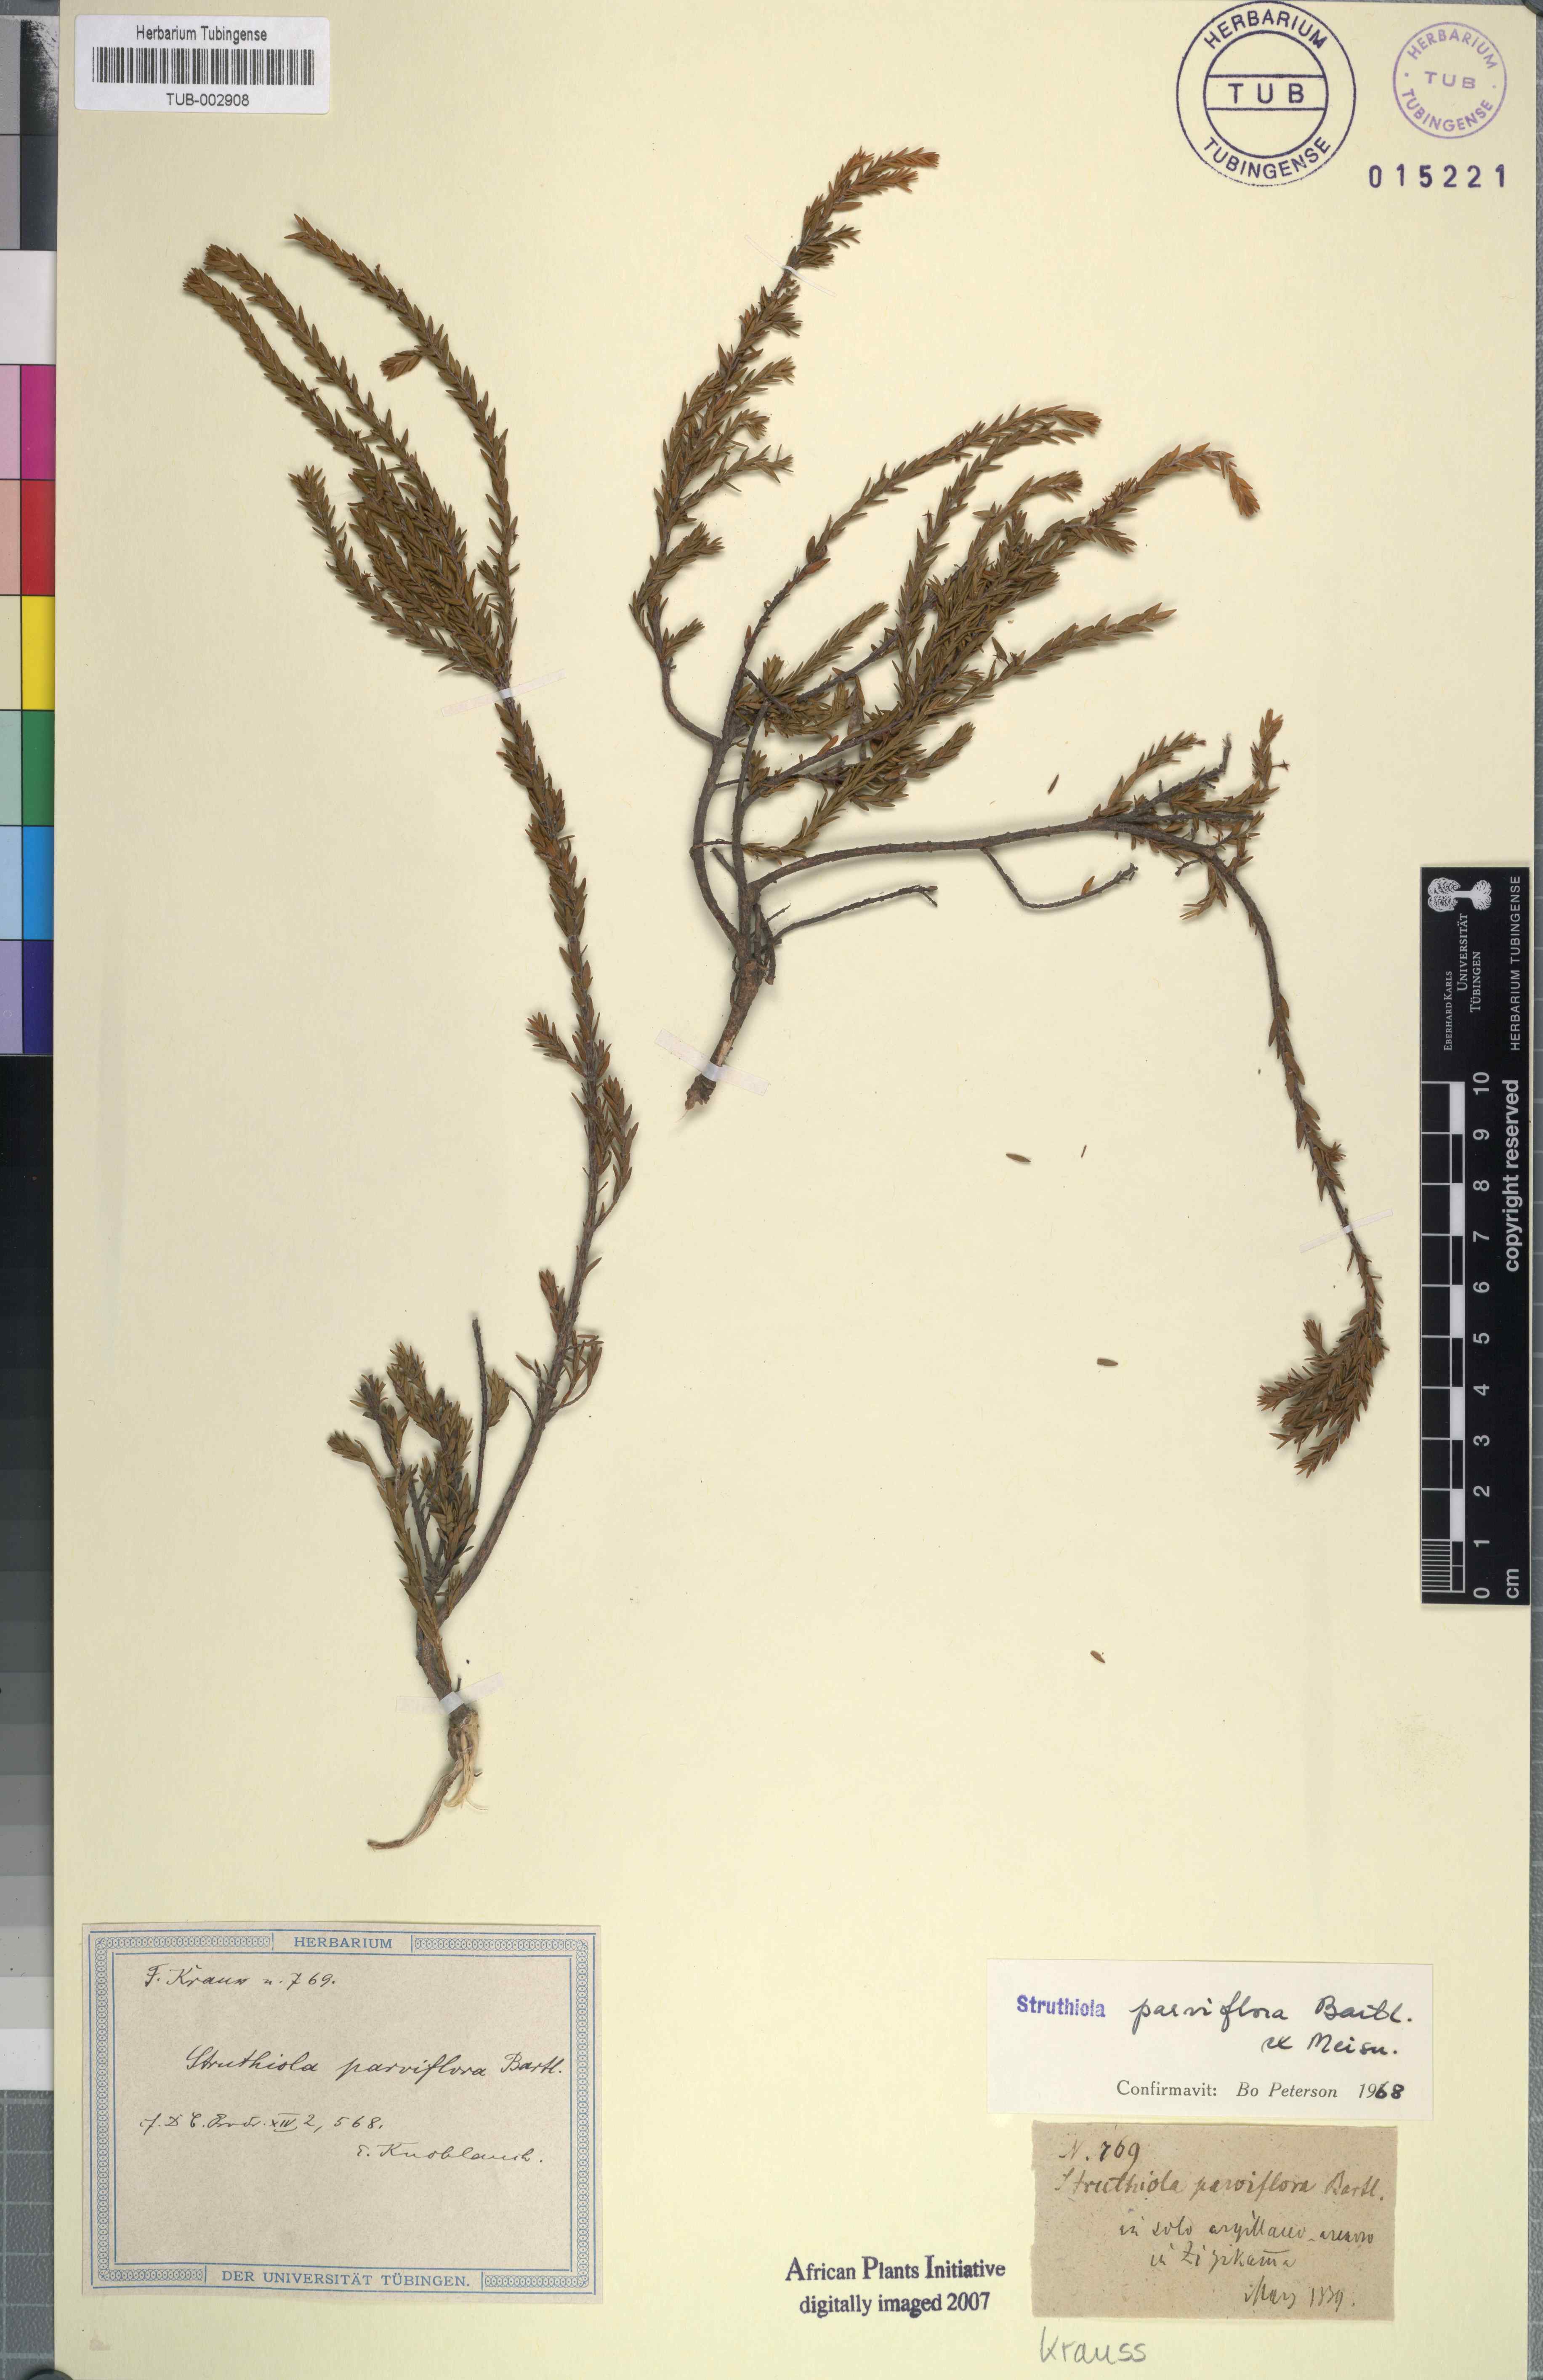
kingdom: Plantae
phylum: Tracheophyta
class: Magnoliopsida
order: Malvales
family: Thymelaeaceae
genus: Struthiola
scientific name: Struthiola parviflora
